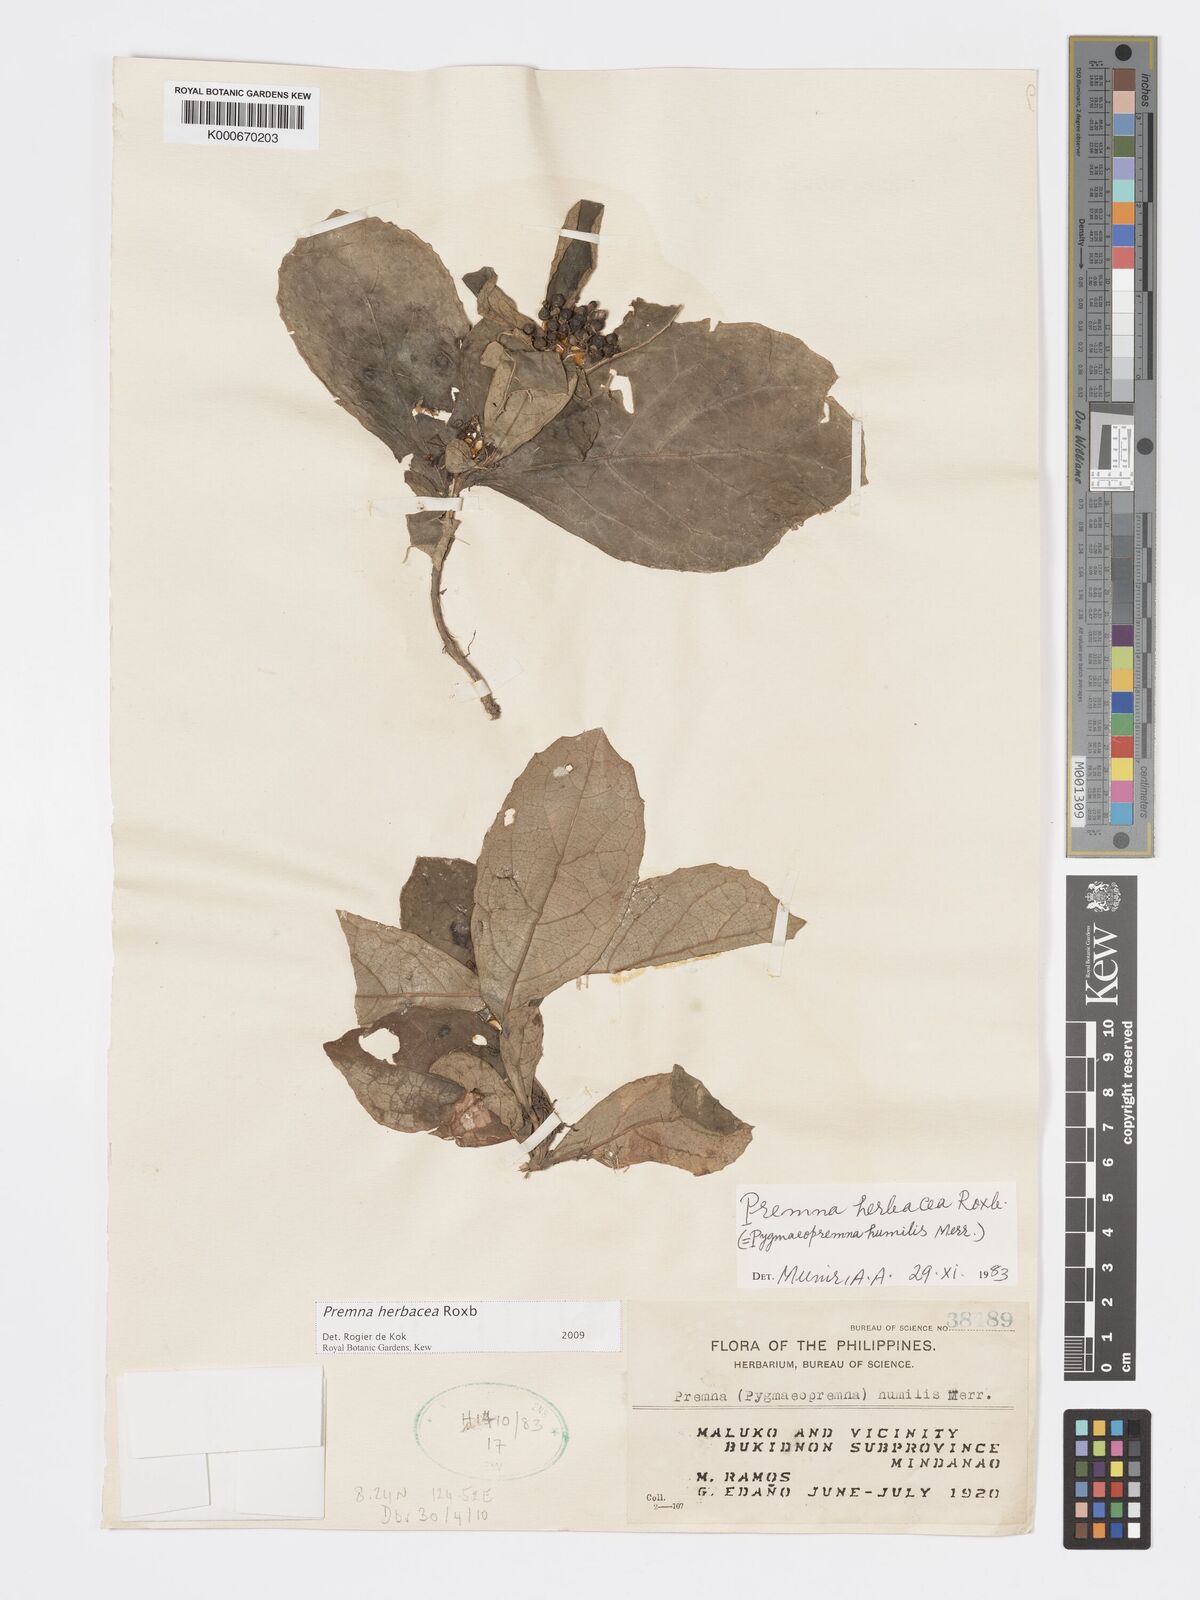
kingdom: Plantae
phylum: Tracheophyta
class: Magnoliopsida
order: Lamiales
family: Lamiaceae
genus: Premna
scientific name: Premna herbacea
